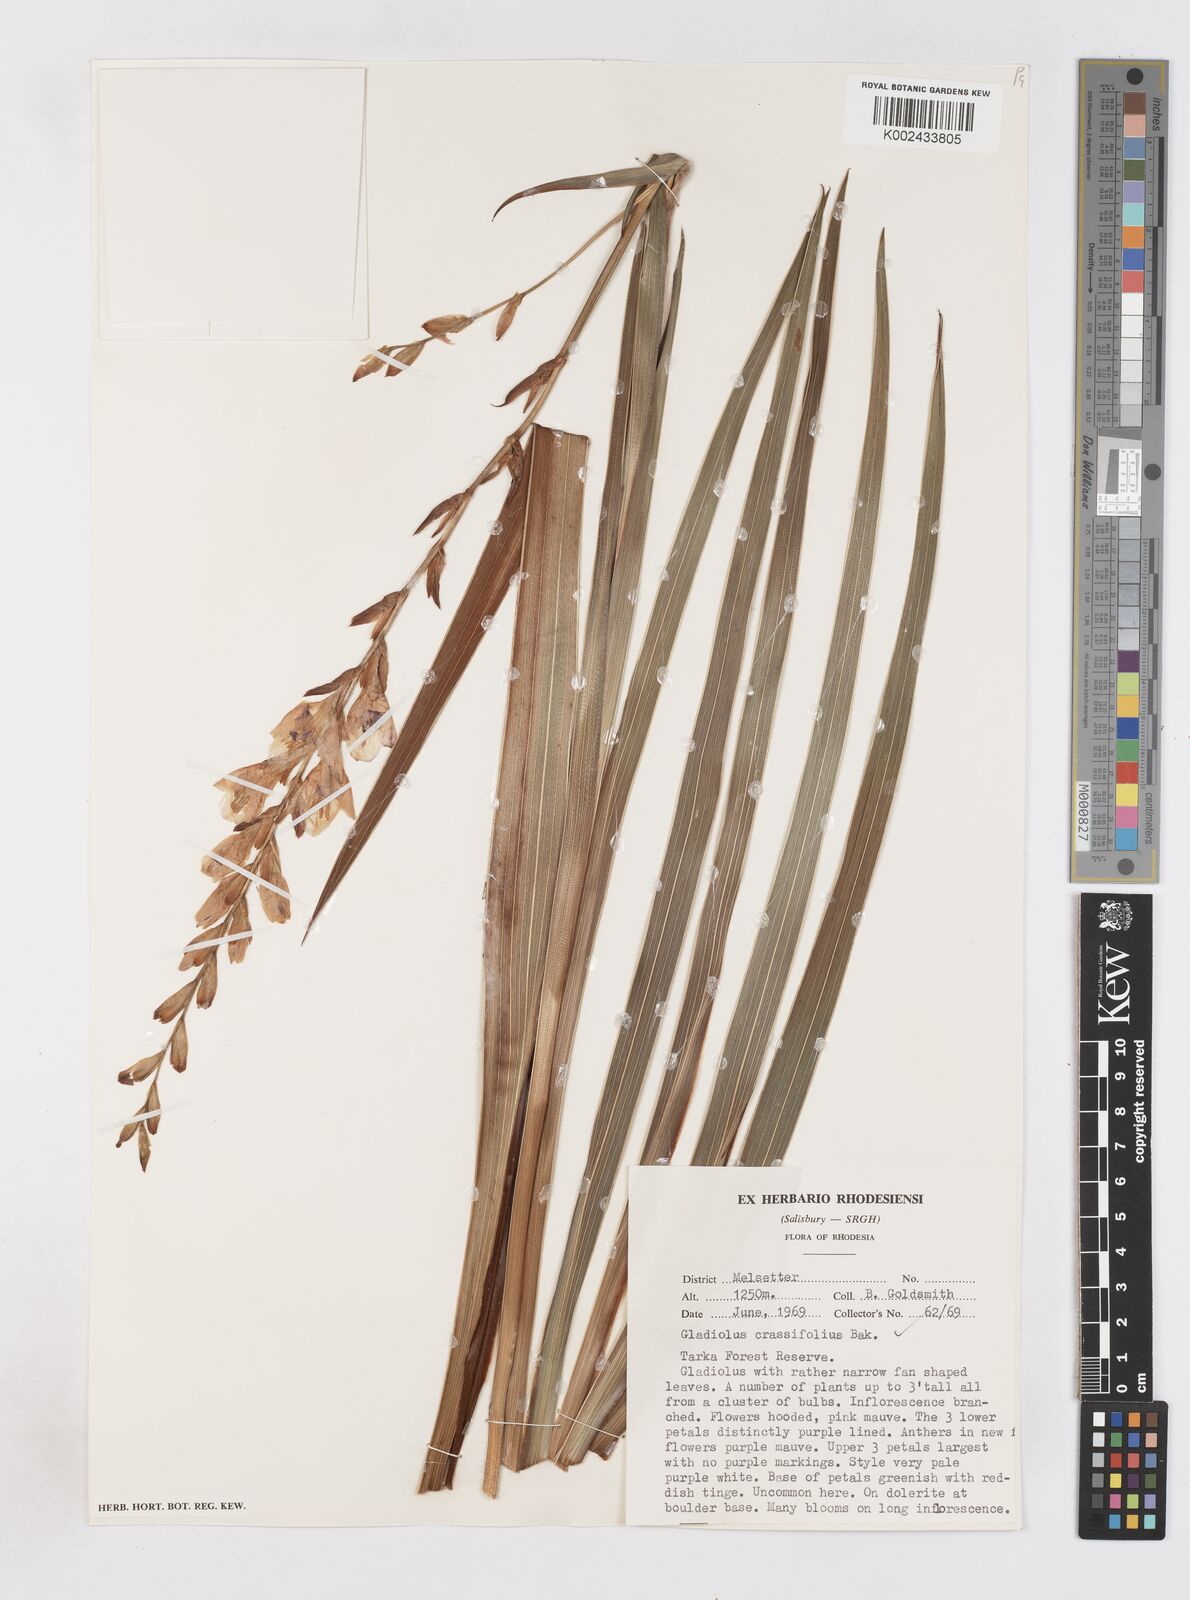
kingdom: Plantae
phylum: Tracheophyta
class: Liliopsida
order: Asparagales
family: Iridaceae
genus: Gladiolus
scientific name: Gladiolus crassifolius
